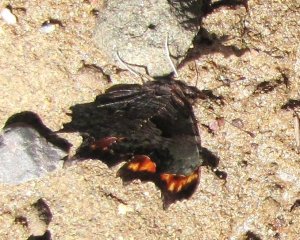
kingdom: Animalia
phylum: Arthropoda
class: Insecta
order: Lepidoptera
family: Nymphalidae
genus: Polygonia
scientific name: Polygonia progne
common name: Gray Comma
